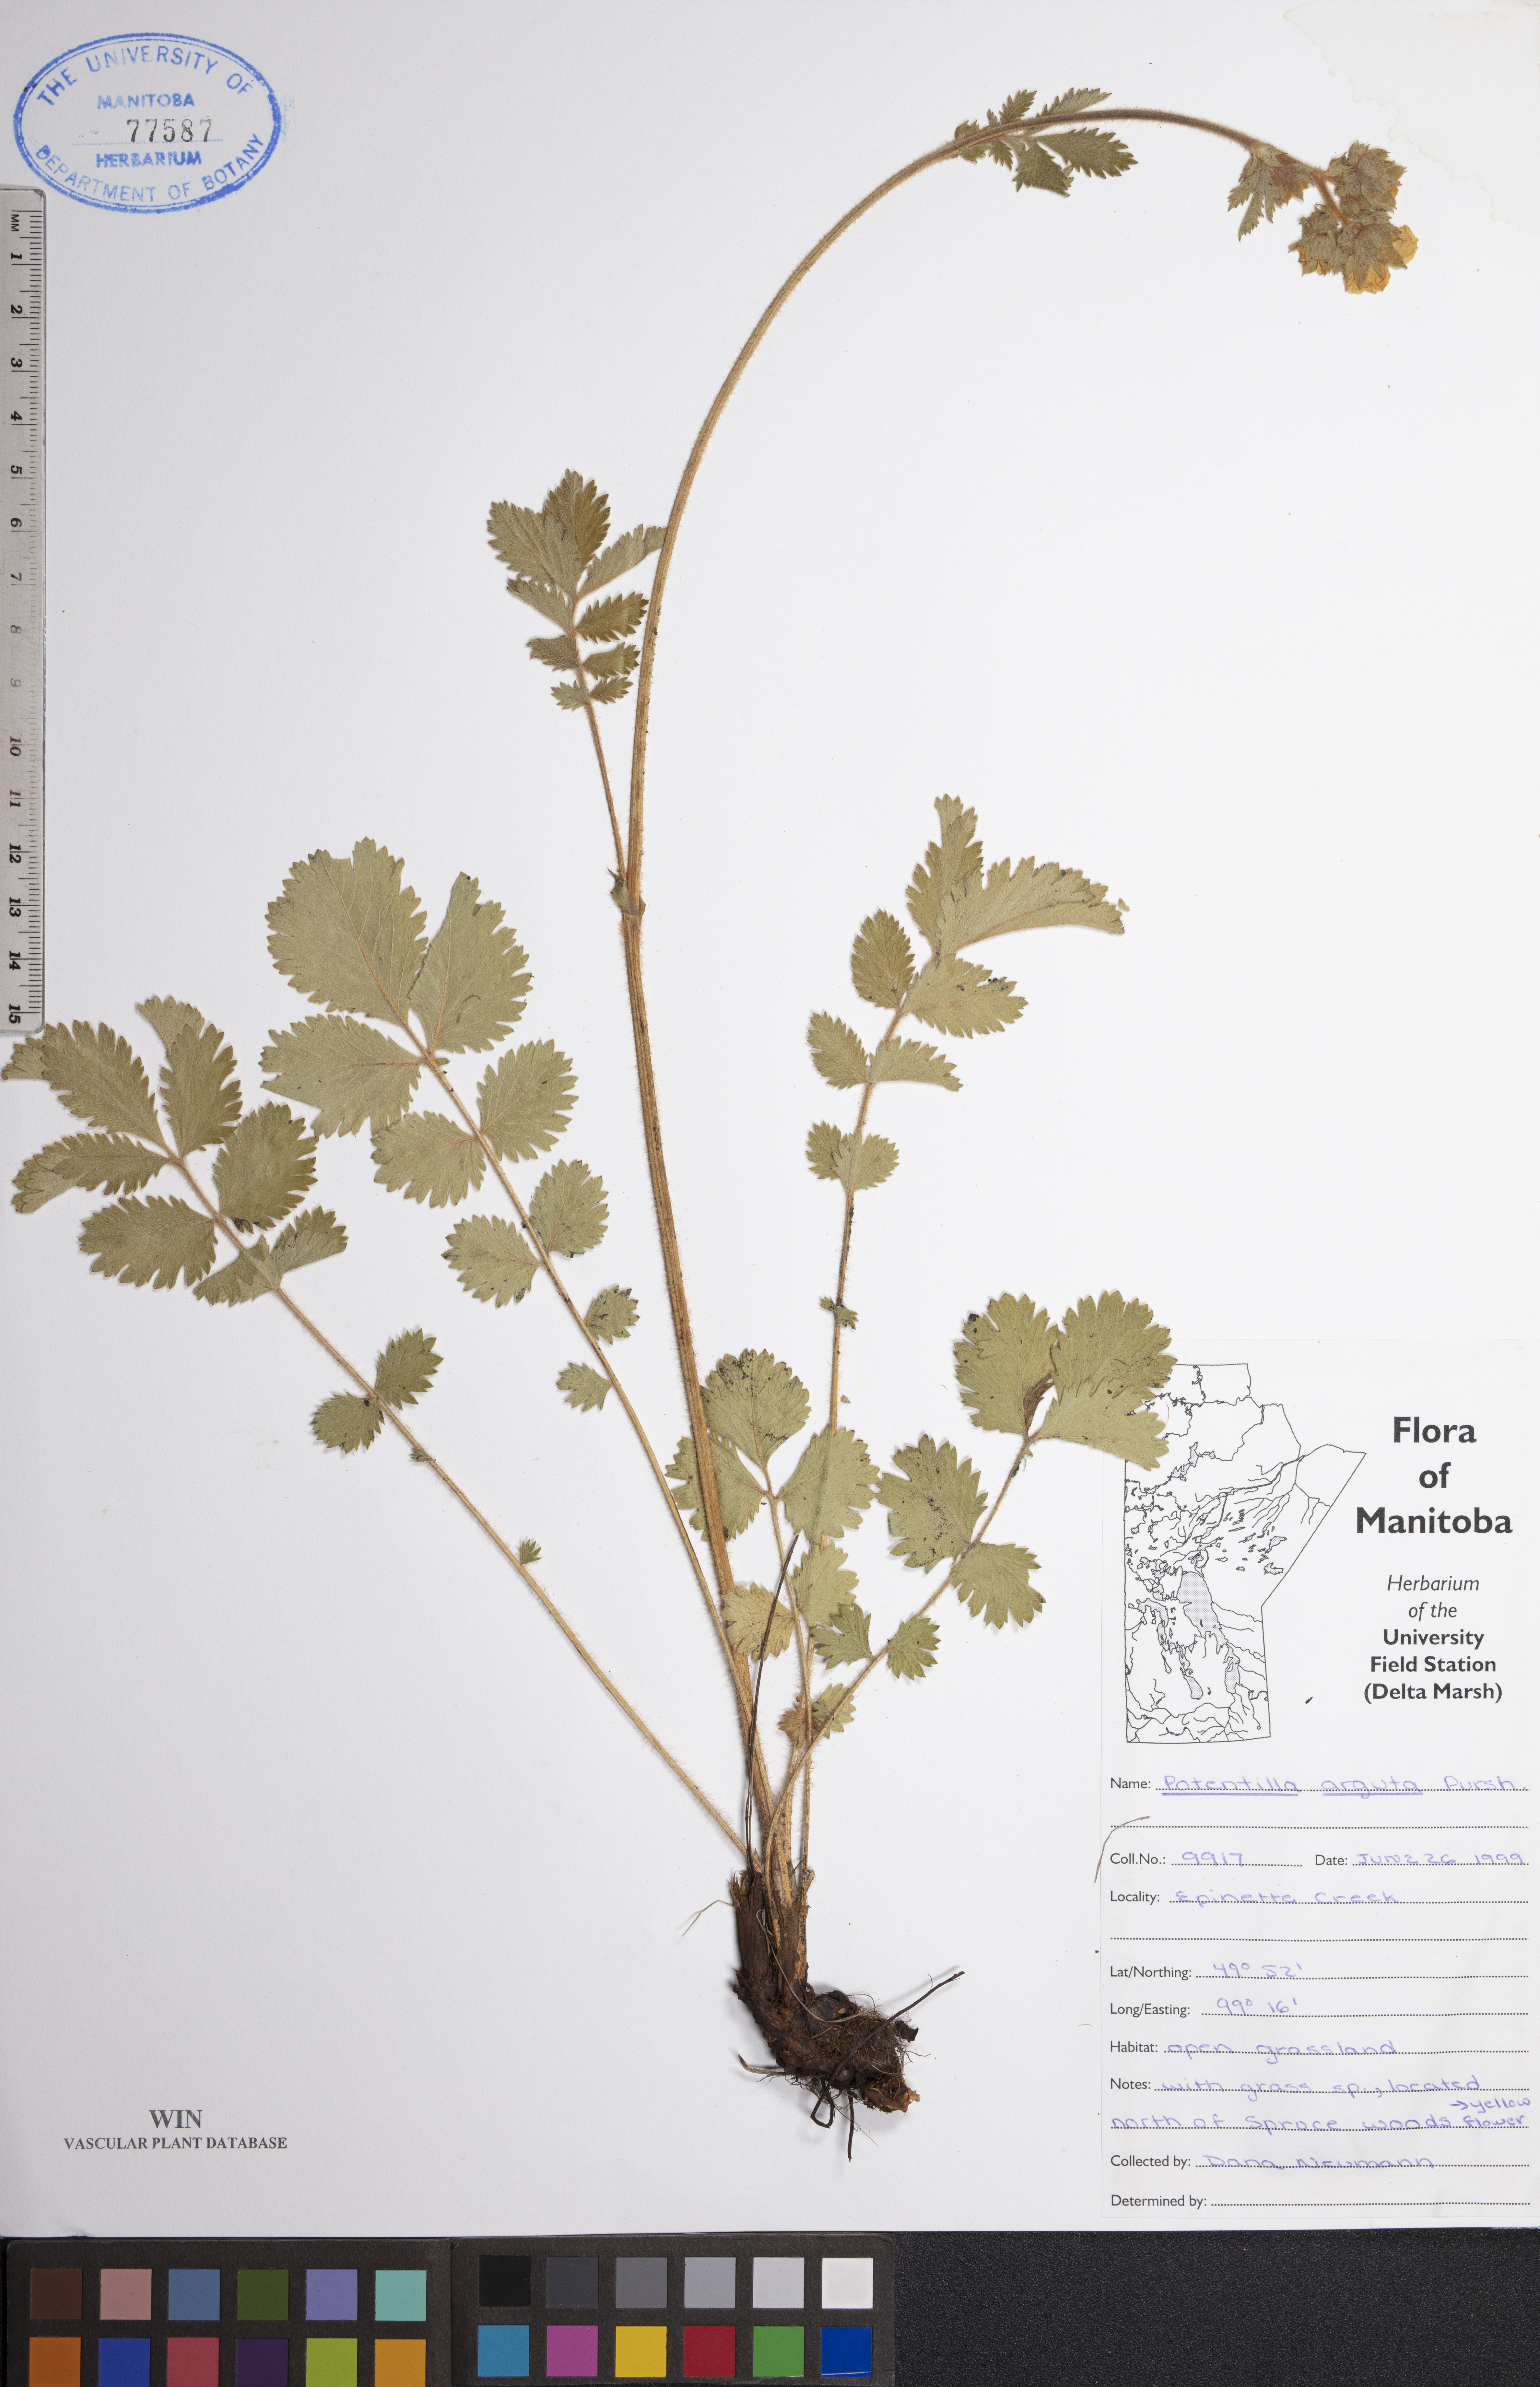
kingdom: Plantae
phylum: Tracheophyta
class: Magnoliopsida
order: Rosales
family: Rosaceae
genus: Drymocallis
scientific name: Drymocallis arguta
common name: Tall cinquefoil
